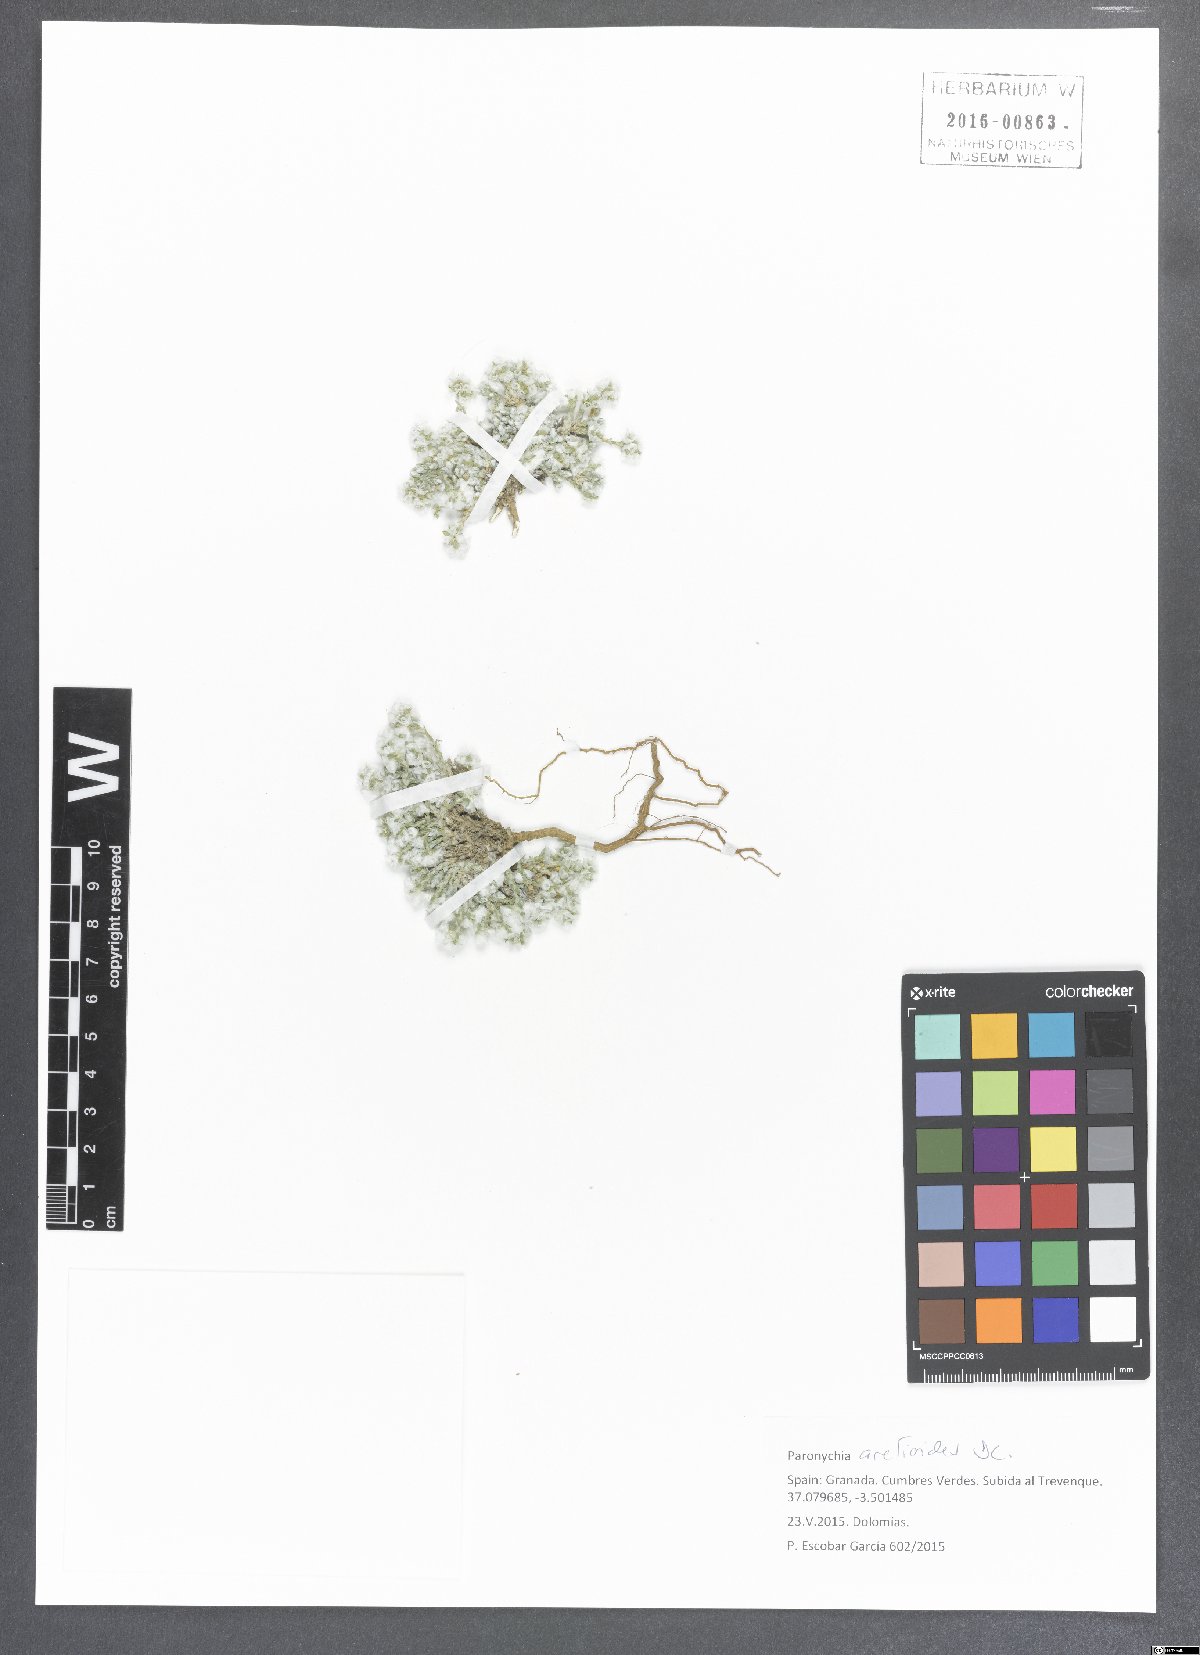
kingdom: Plantae
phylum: Tracheophyta
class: Magnoliopsida
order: Caryophyllales
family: Caryophyllaceae
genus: Paronychia
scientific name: Paronychia aretioides
